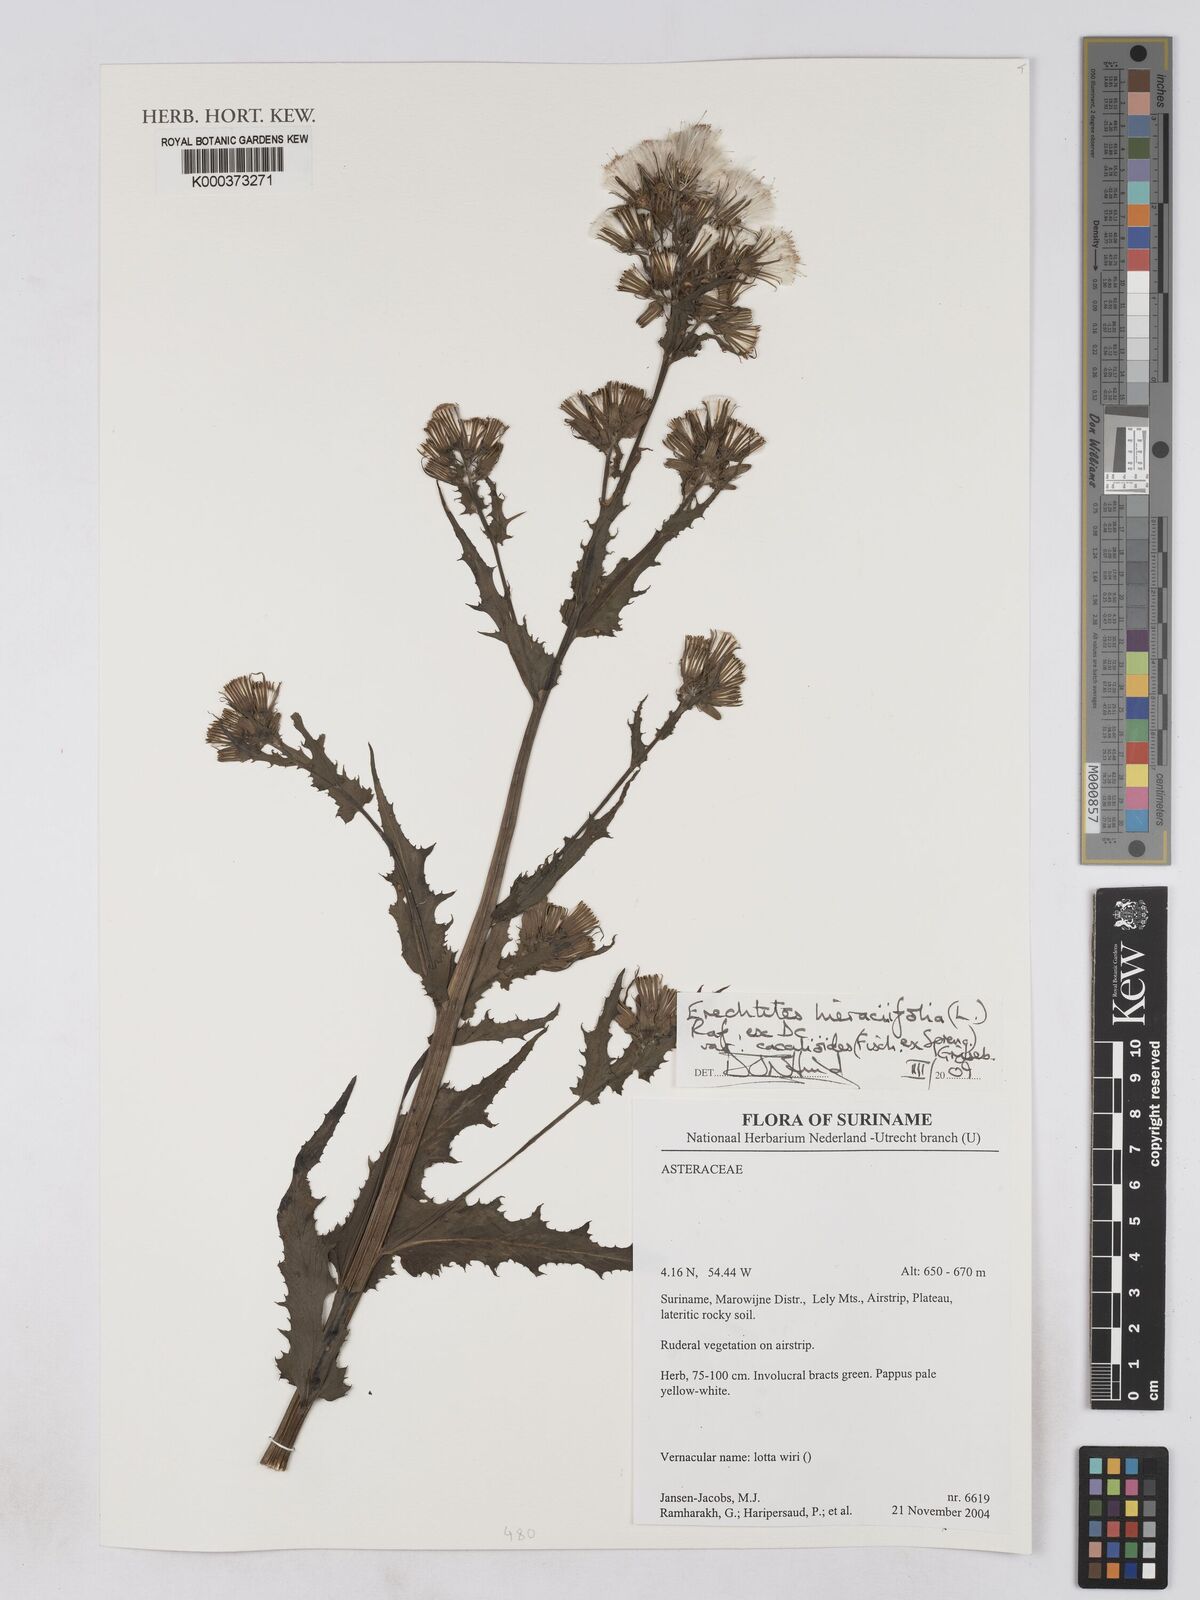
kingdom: Plantae
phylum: Tracheophyta
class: Magnoliopsida
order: Asterales
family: Asteraceae
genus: Erechtites
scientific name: Erechtites hieraciifolius
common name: American burnweed
